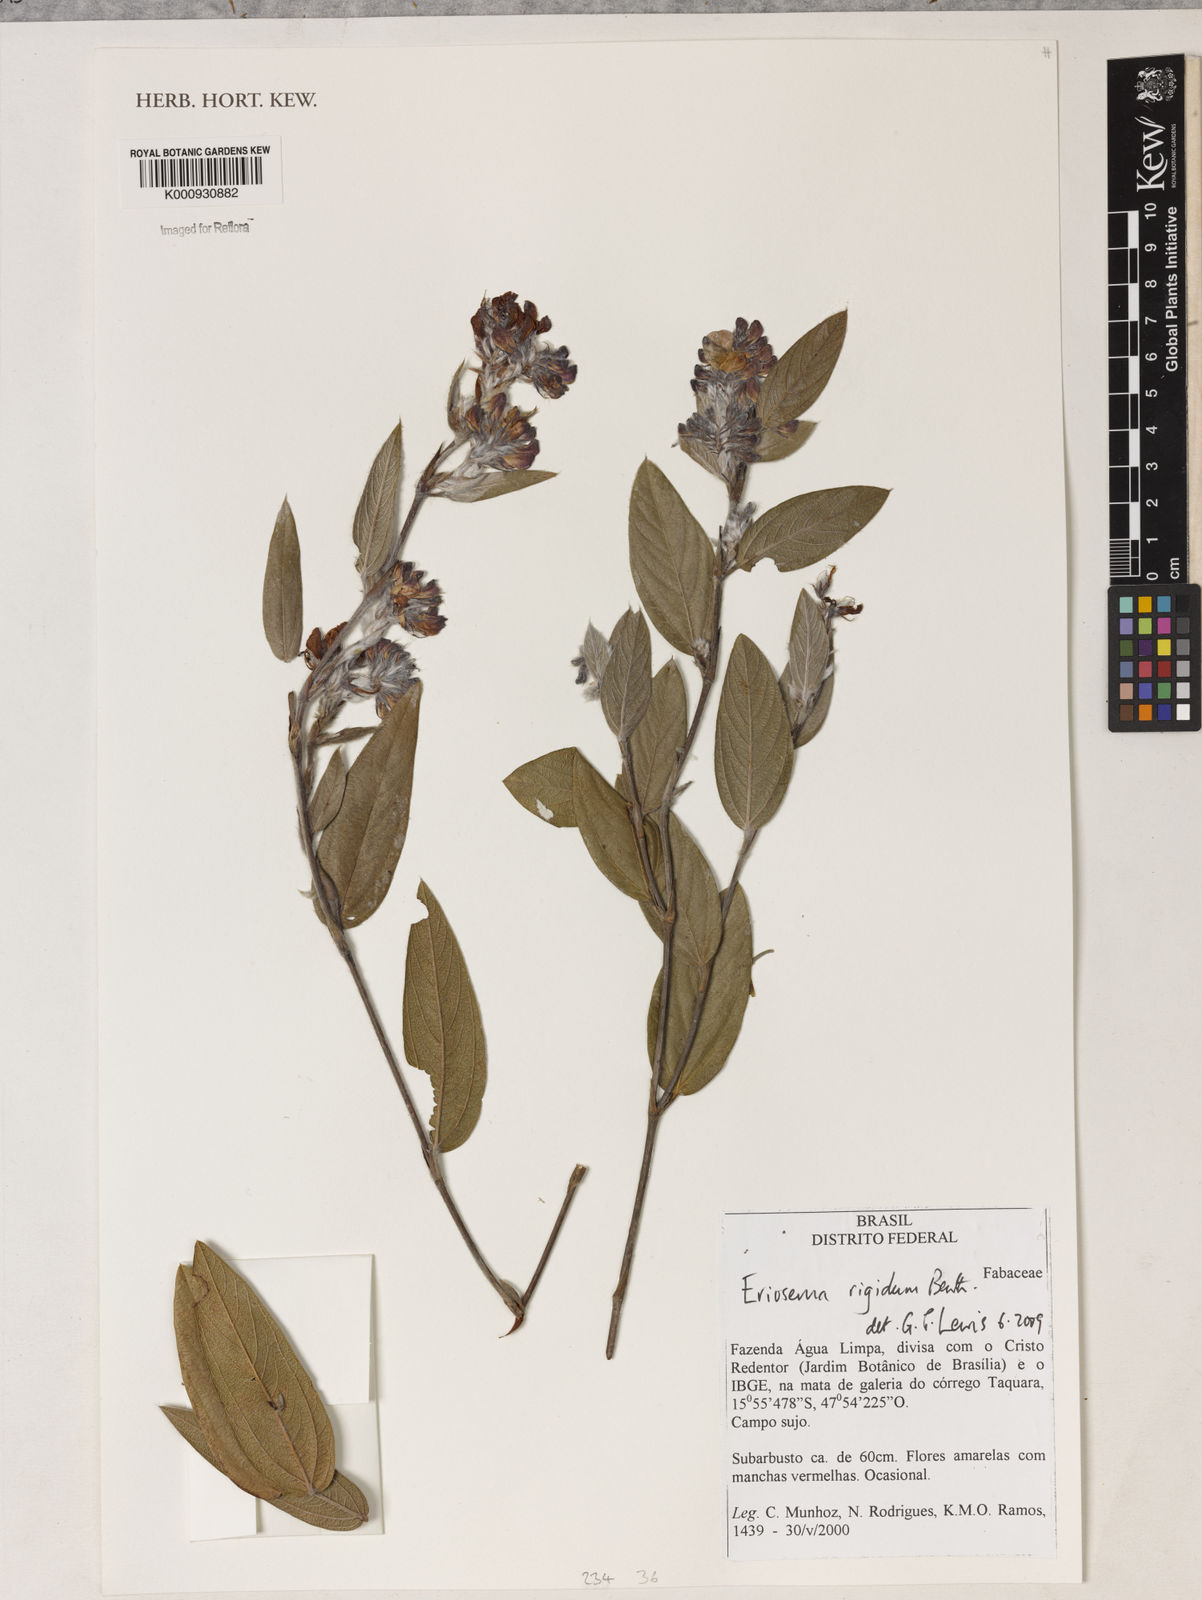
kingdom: Plantae
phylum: Tracheophyta
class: Magnoliopsida
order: Fabales
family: Fabaceae
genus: Eriosema
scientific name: Eriosema rigidum
